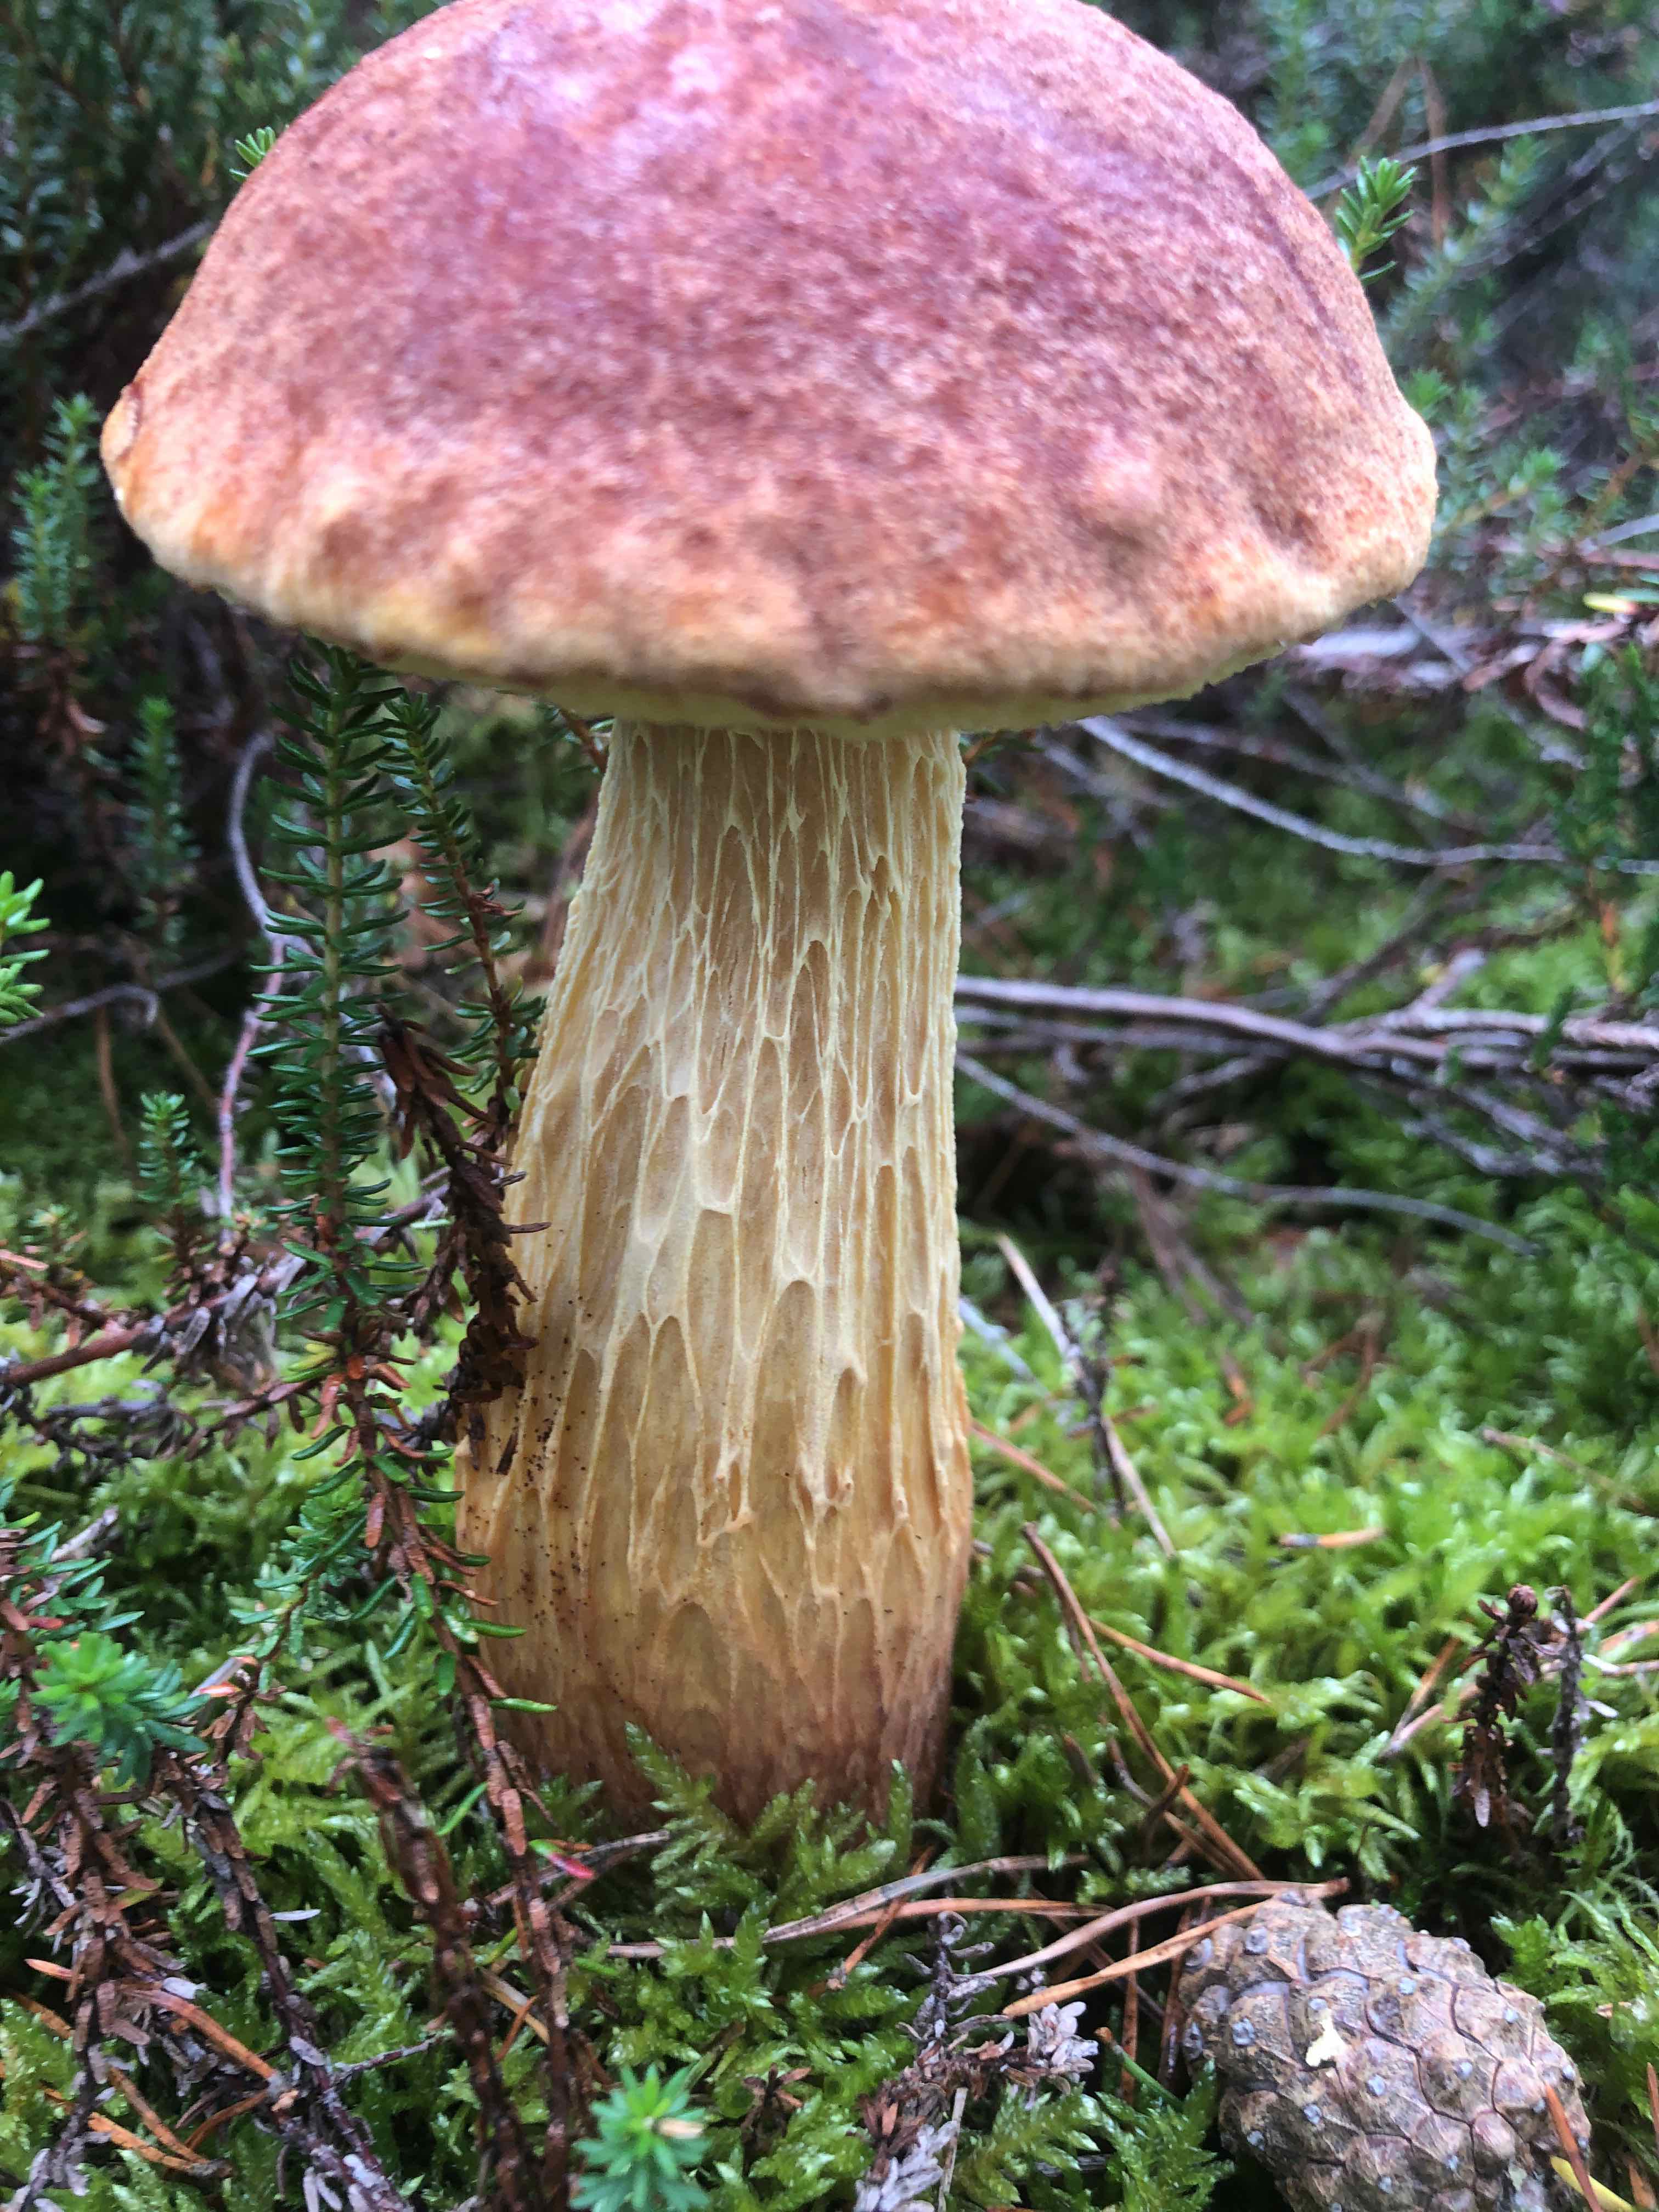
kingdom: Fungi
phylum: Basidiomycota
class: Agaricomycetes
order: Boletales
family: Boletaceae
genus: Aureoboletus
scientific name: Aureoboletus projectellus
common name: ribbestokket rørhat
